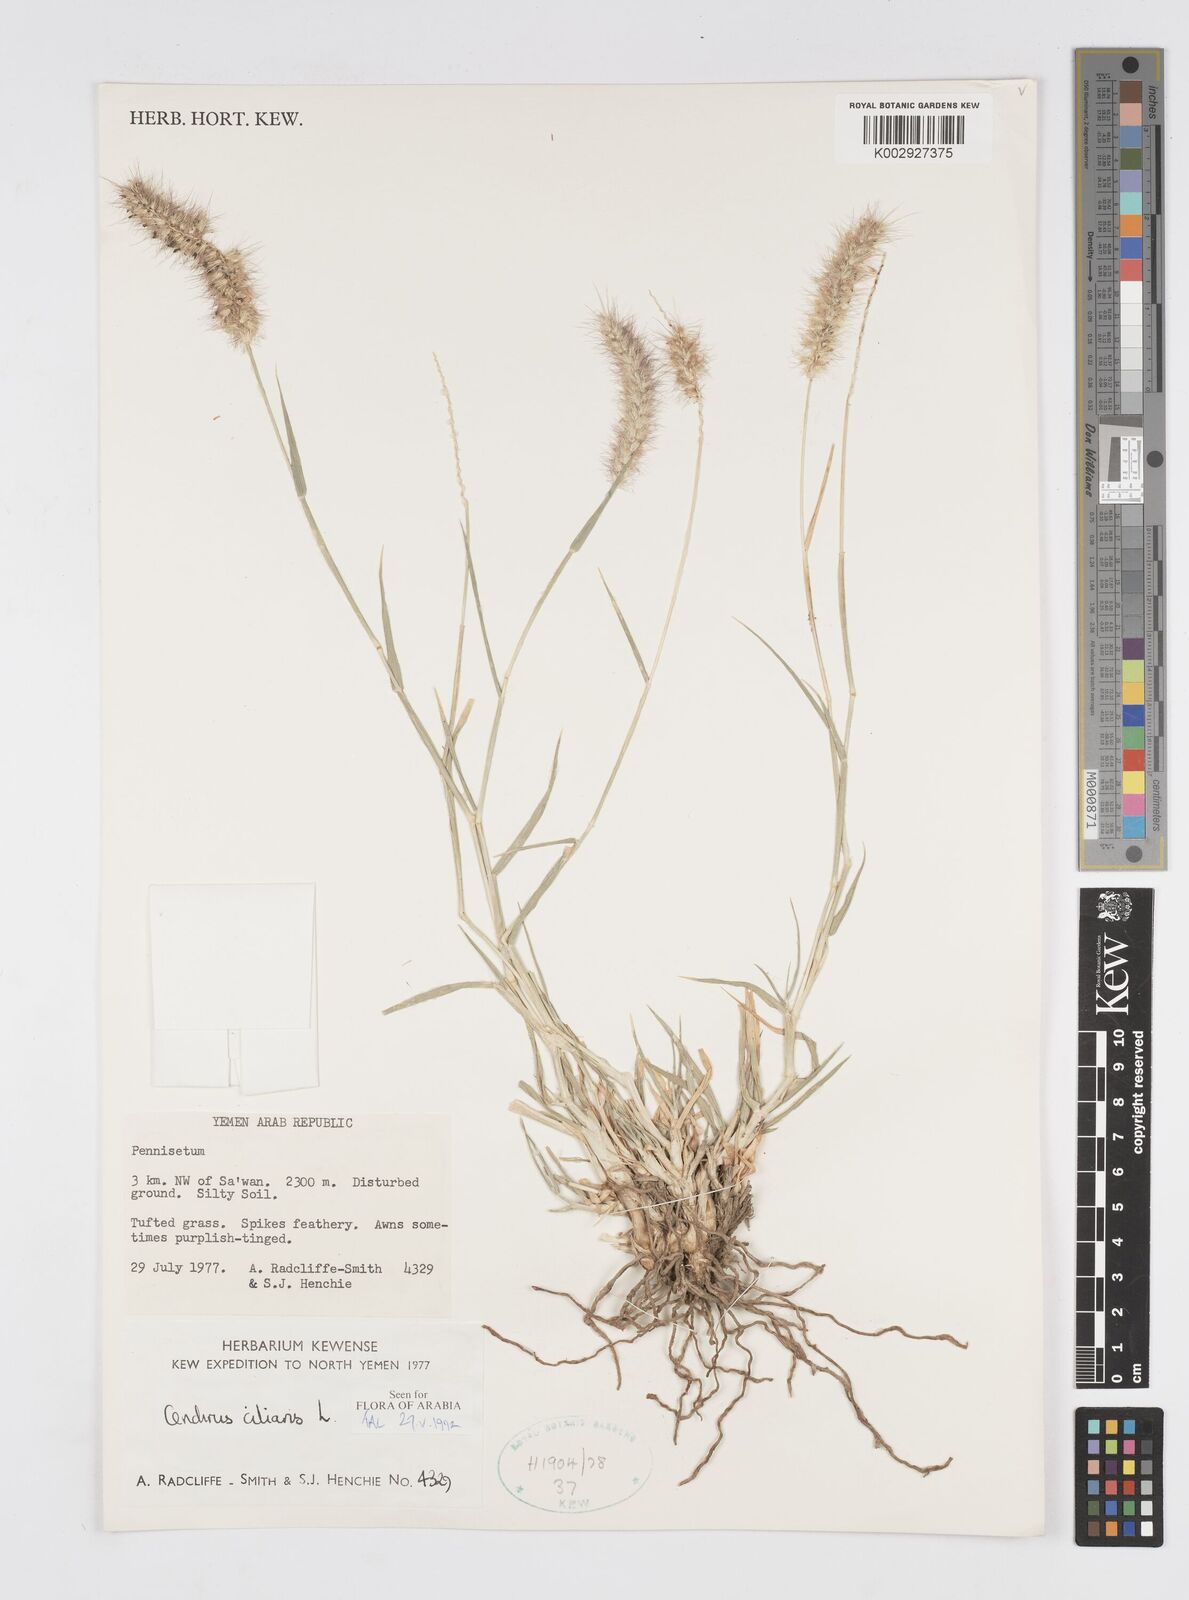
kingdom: Plantae
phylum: Tracheophyta
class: Liliopsida
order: Poales
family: Poaceae
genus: Cenchrus
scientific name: Cenchrus ciliaris
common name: Buffelgrass
